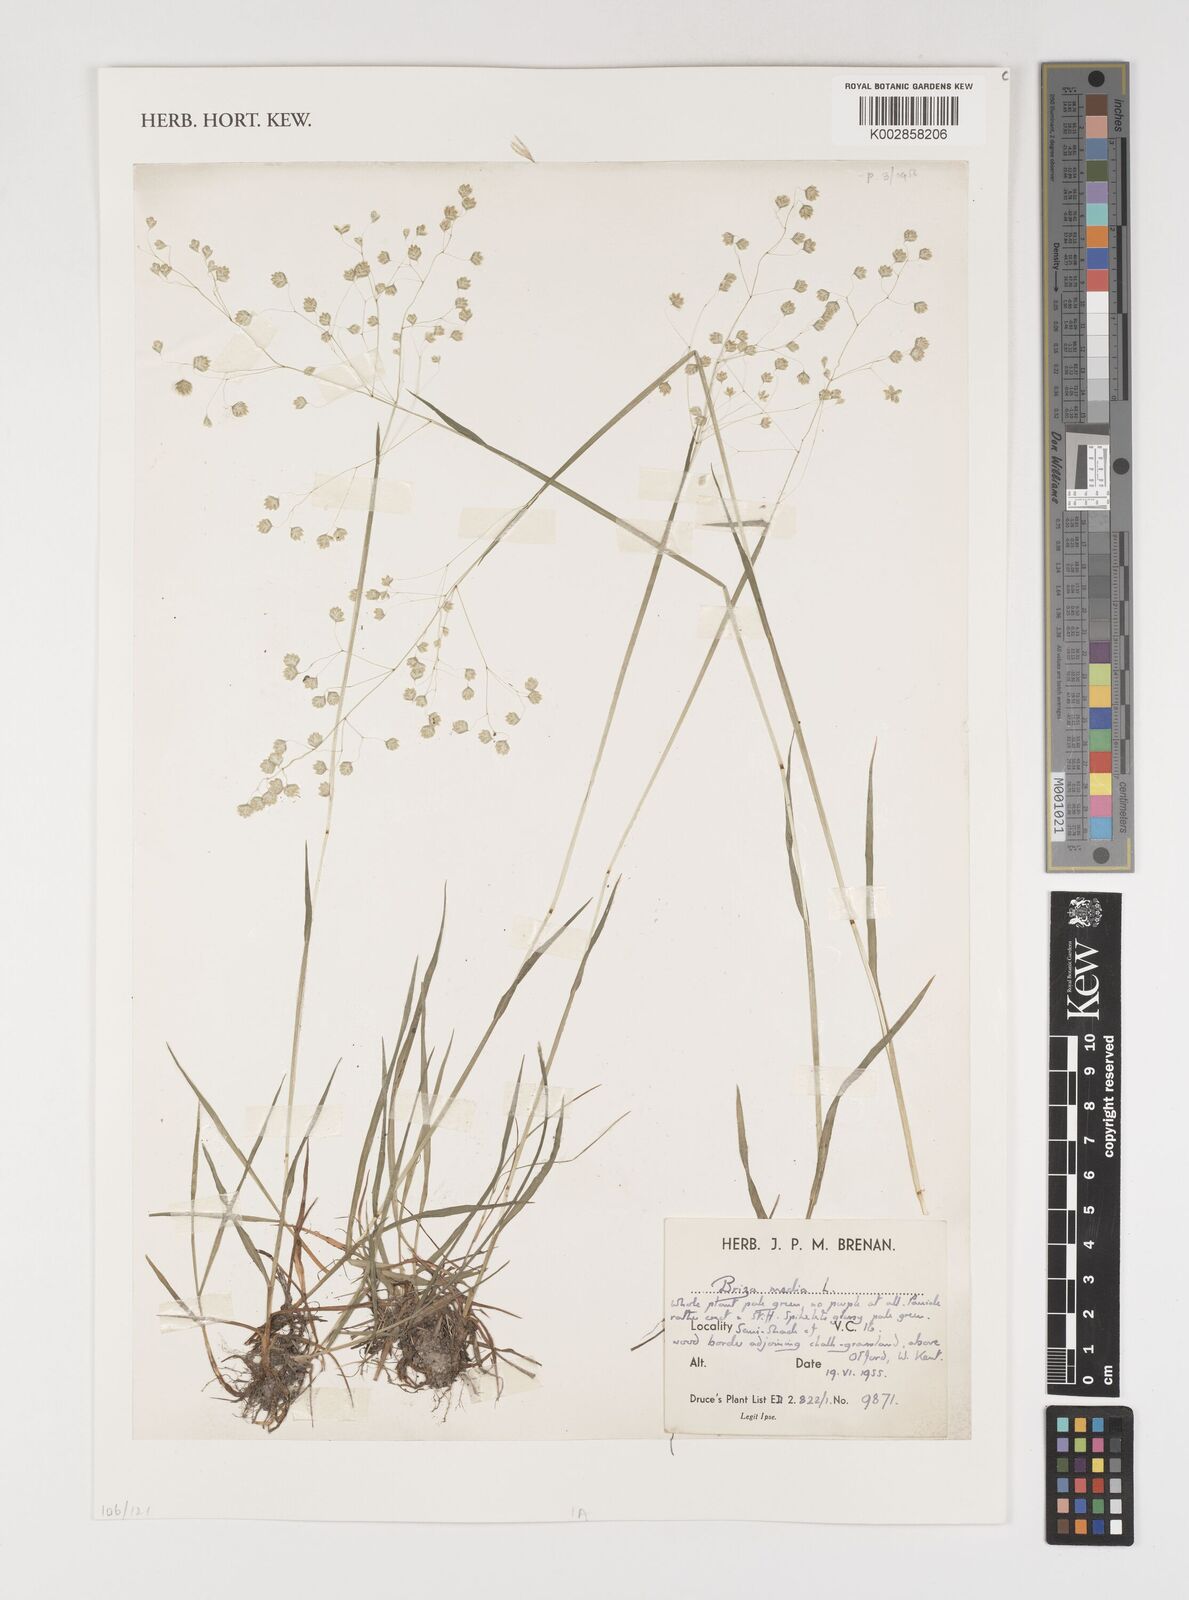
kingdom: Plantae
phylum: Tracheophyta
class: Liliopsida
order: Poales
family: Poaceae
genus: Briza
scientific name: Briza media
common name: Quaking grass
